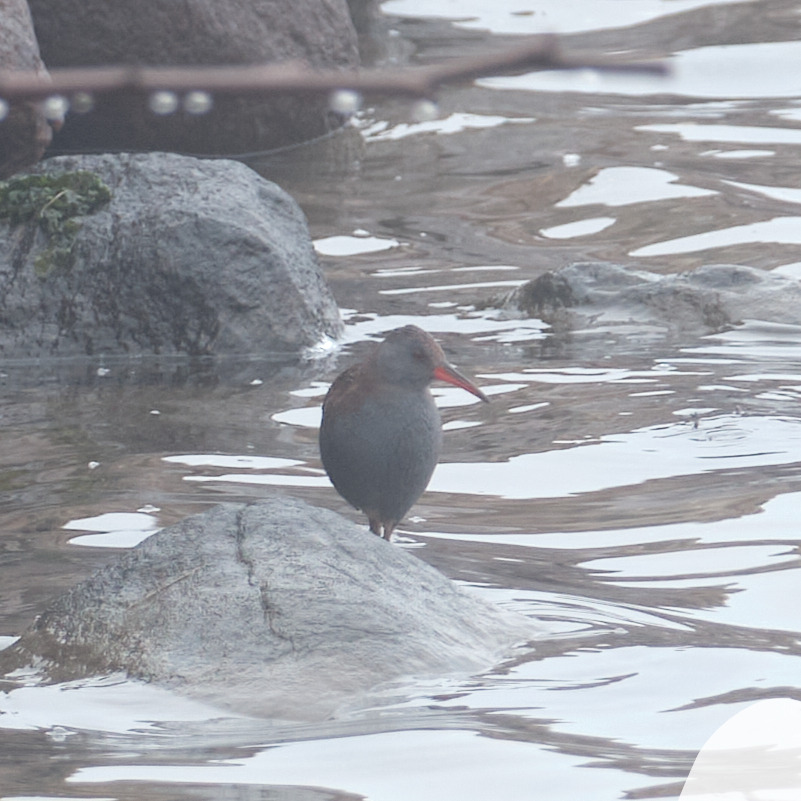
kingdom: Animalia
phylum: Chordata
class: Aves
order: Gruiformes
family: Rallidae
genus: Rallus
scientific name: Rallus aquaticus
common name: Vandrikse
